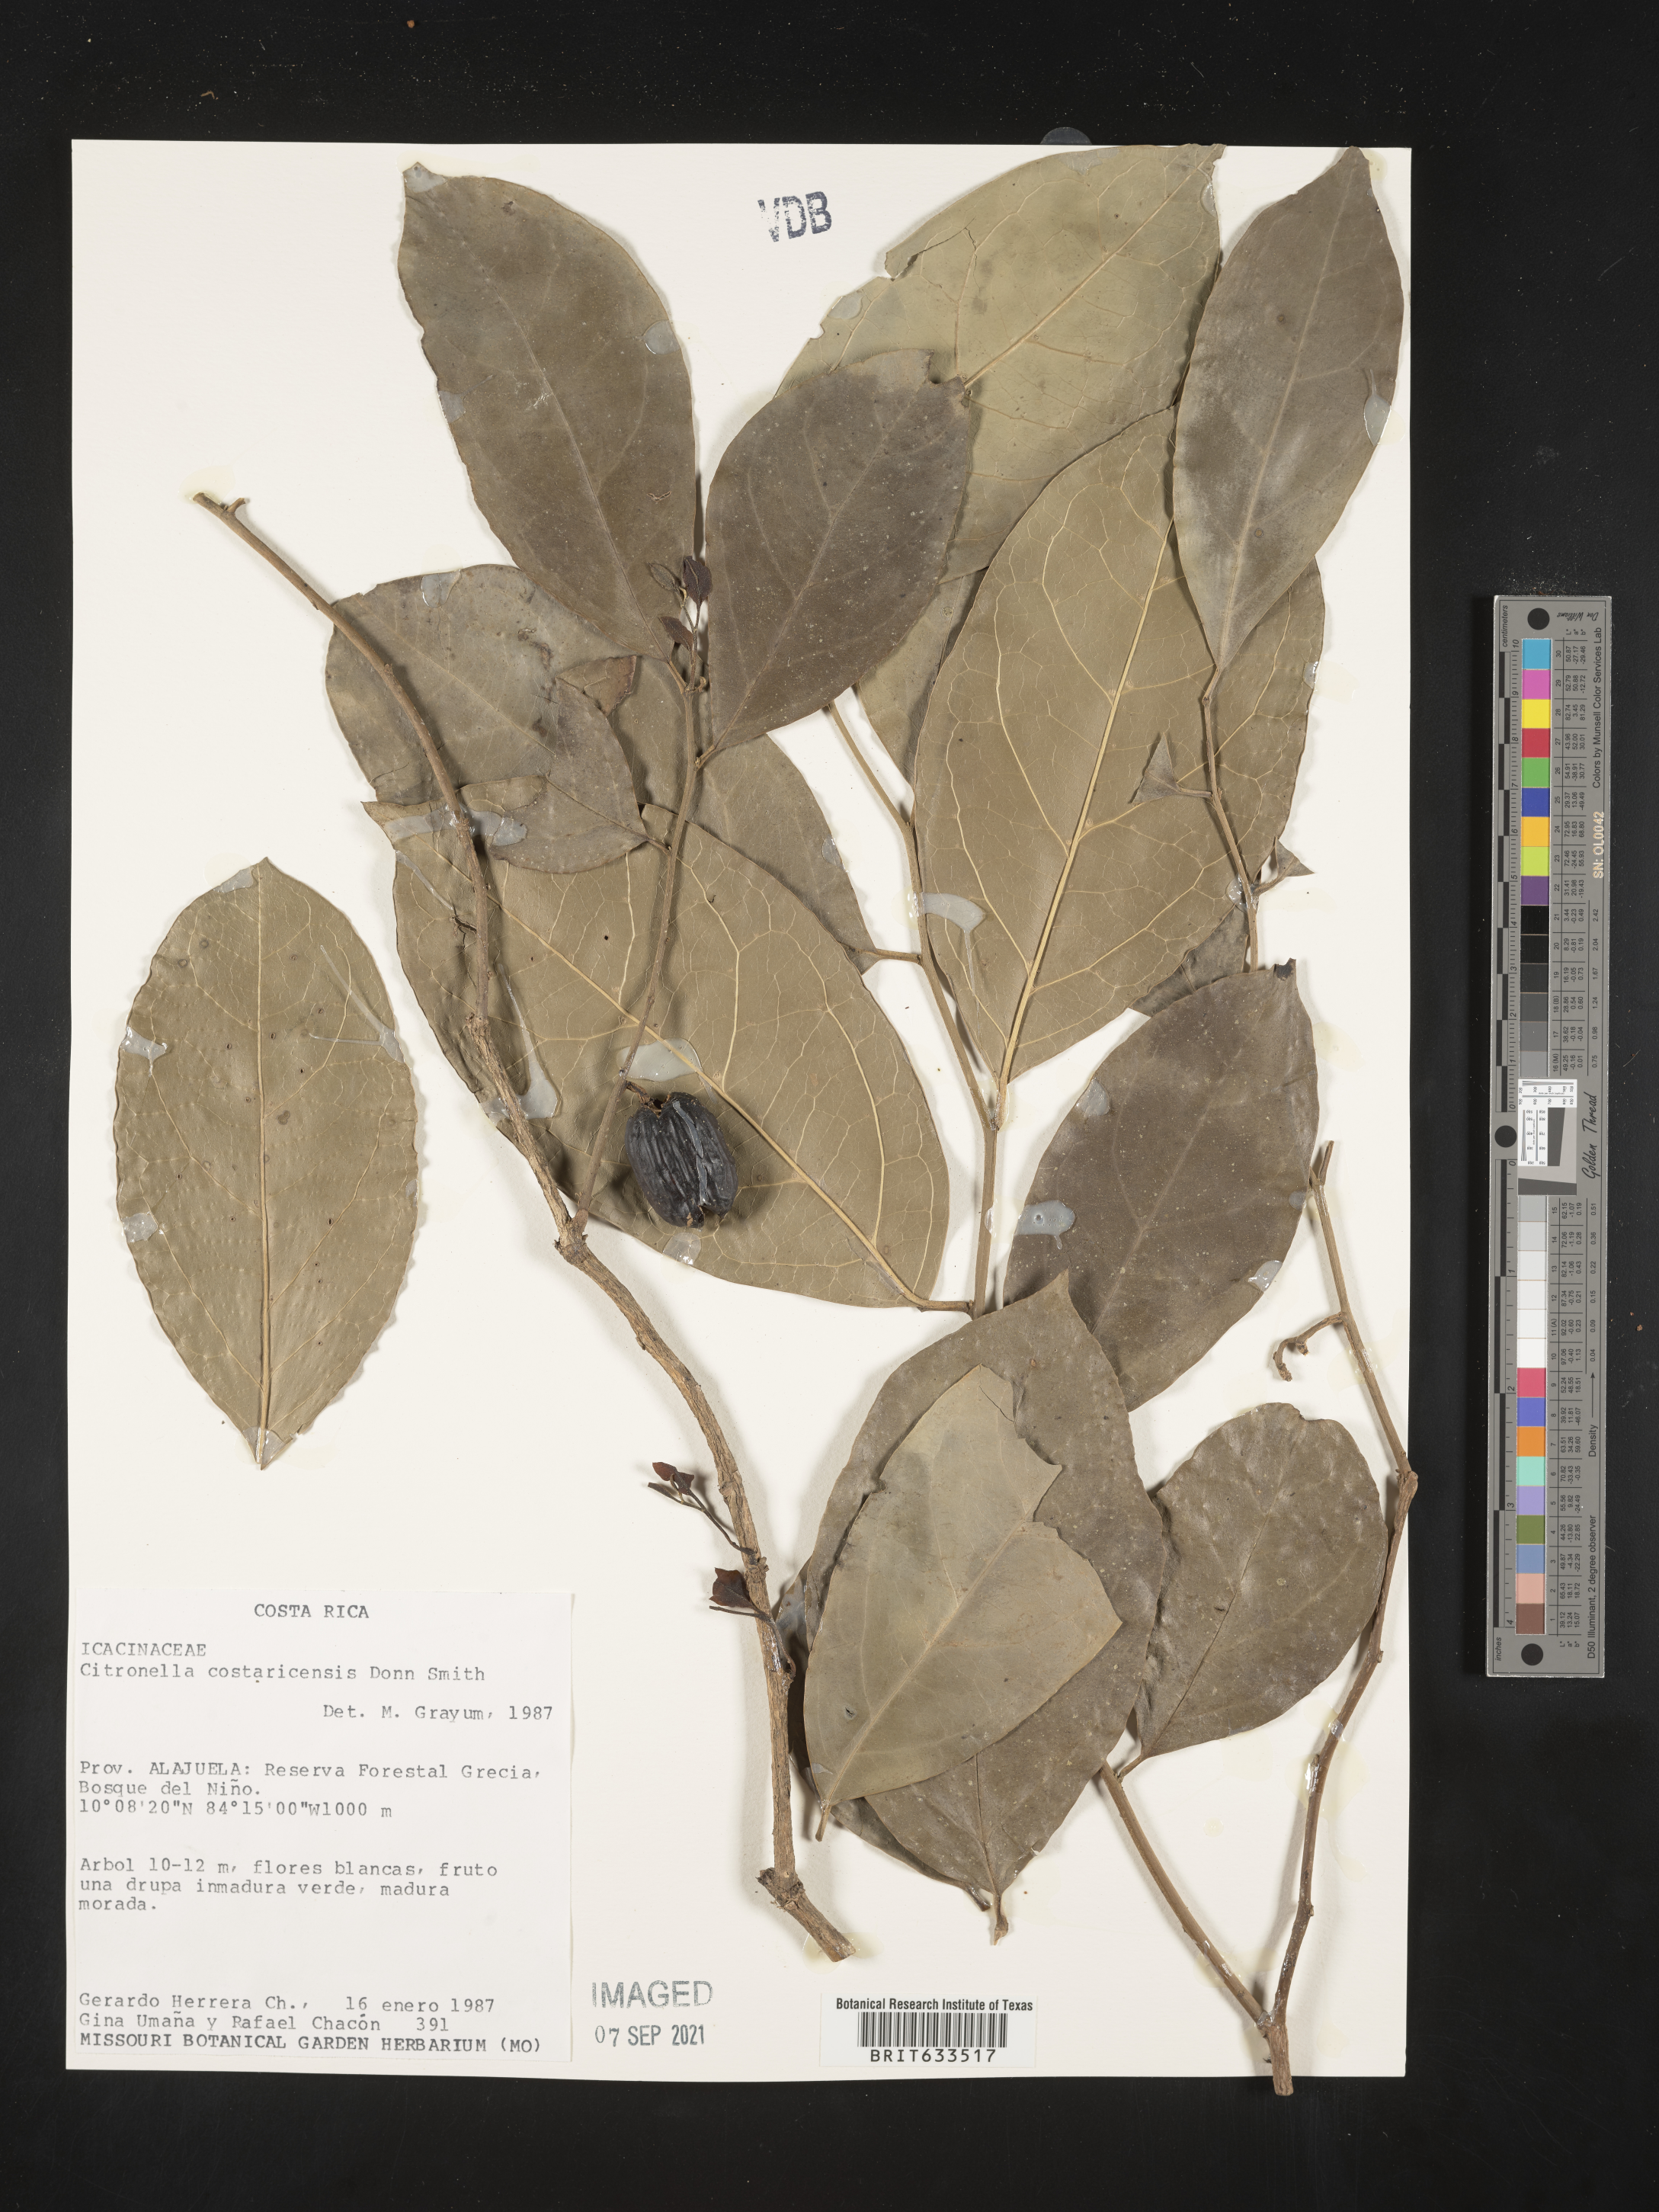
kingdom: Plantae
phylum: Tracheophyta
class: Magnoliopsida
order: Cardiopteridales
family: Cardiopteridaceae
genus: Citronella
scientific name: Citronella costaricensis
